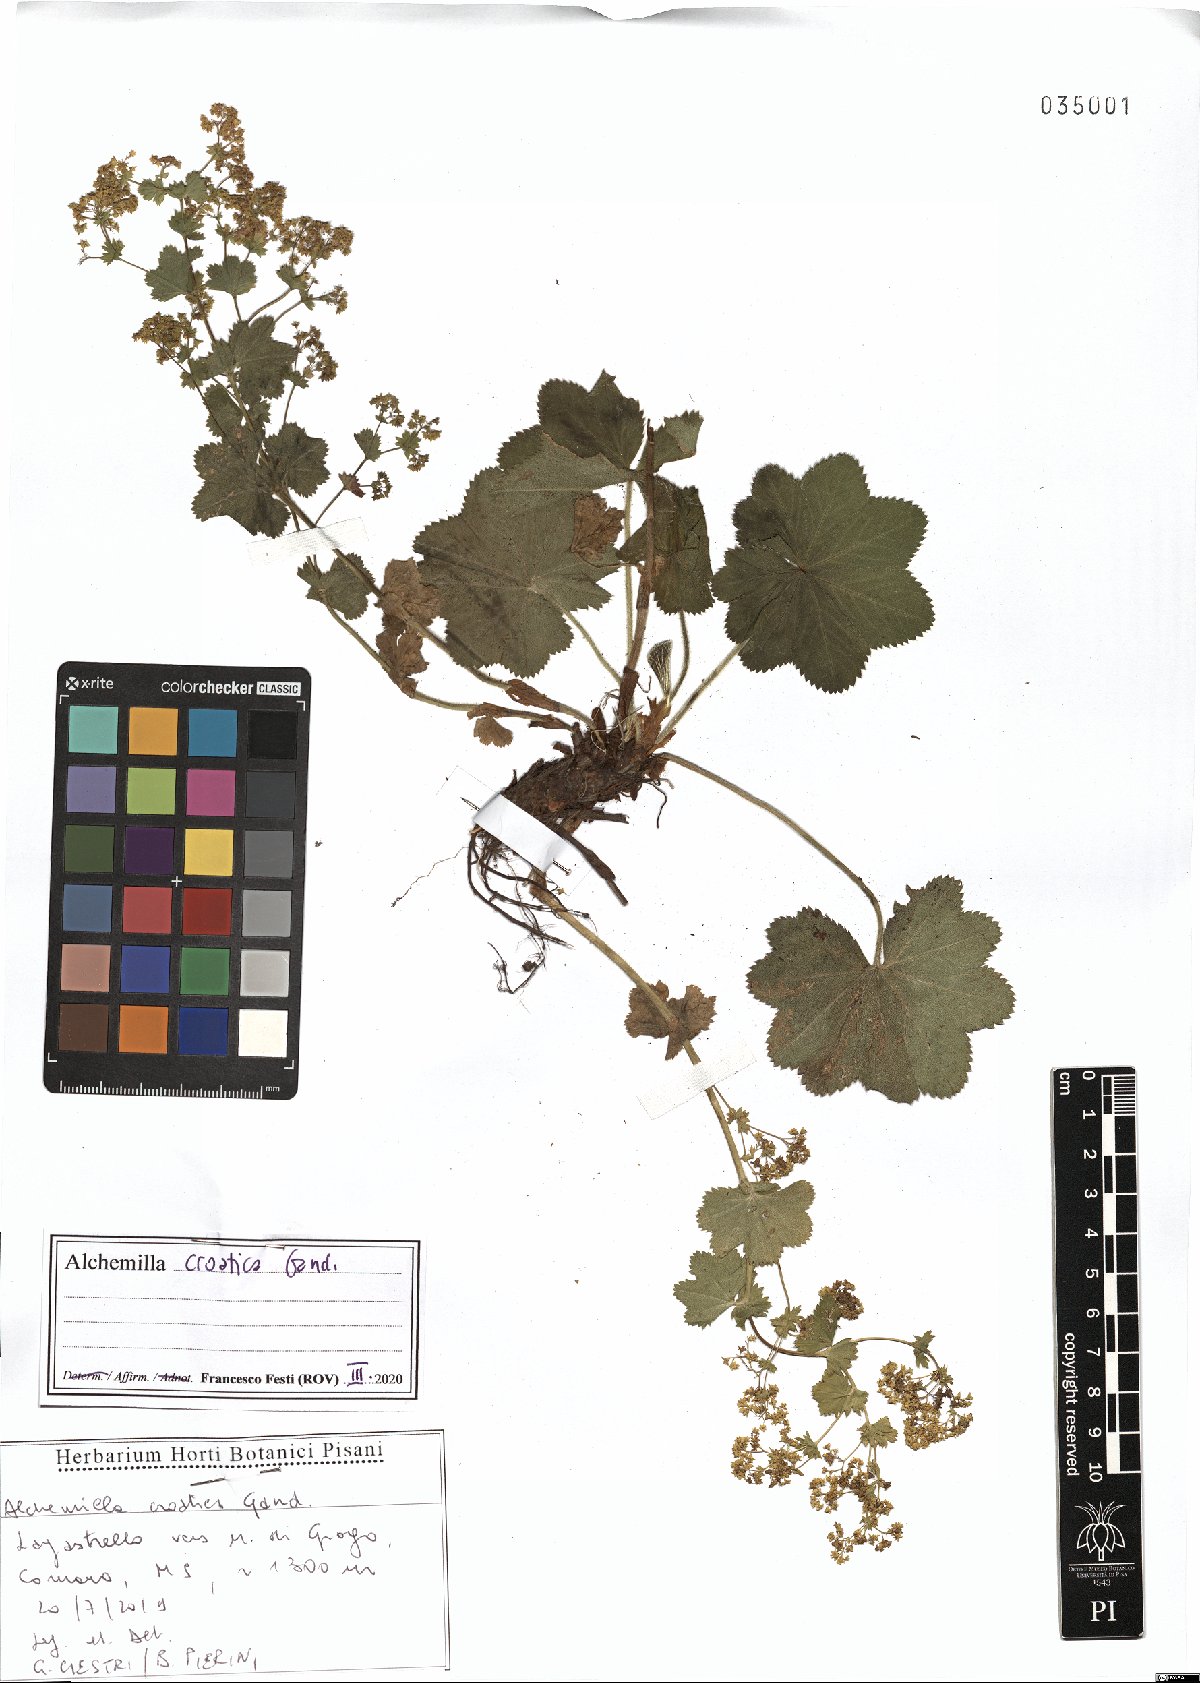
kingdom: Plantae
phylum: Tracheophyta
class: Magnoliopsida
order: Rosales
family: Rosaceae
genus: Alchemilla
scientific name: Alchemilla croatica
